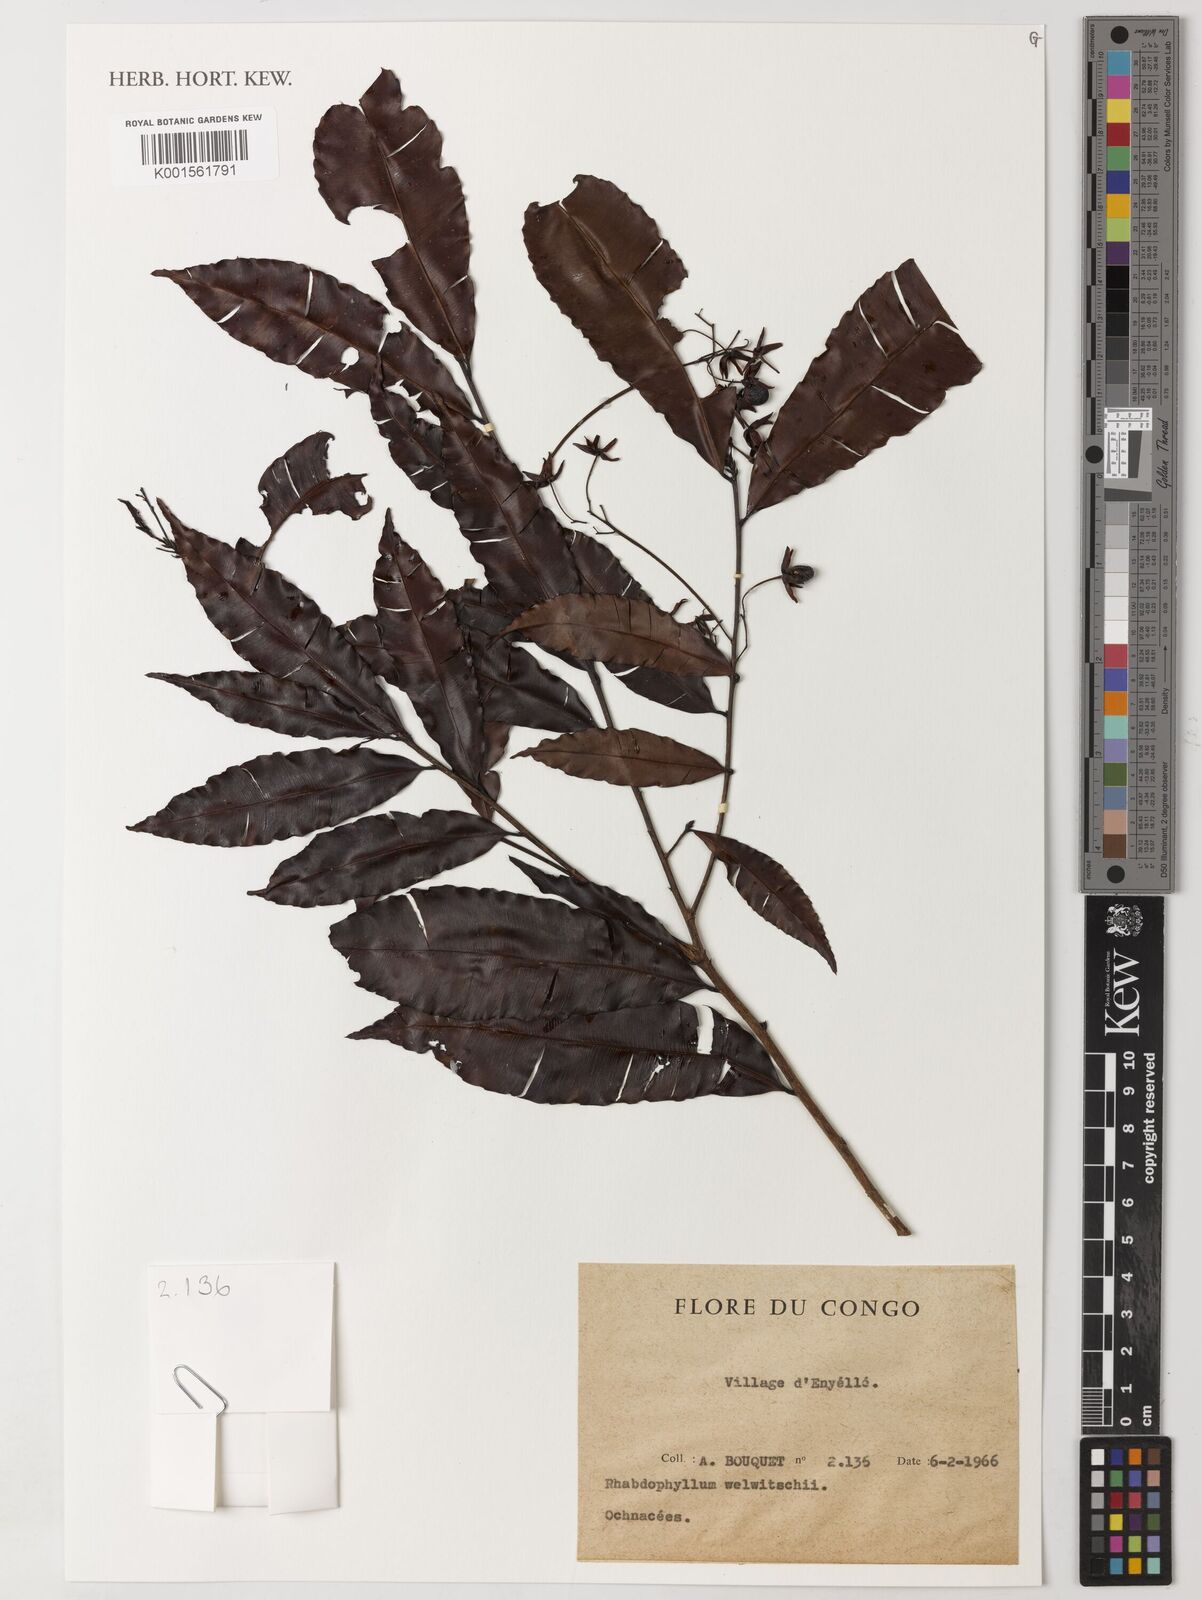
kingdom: Plantae
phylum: Tracheophyta
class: Magnoliopsida
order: Malpighiales
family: Ochnaceae
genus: Rhabdophyllum
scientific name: Rhabdophyllum welwitschii
